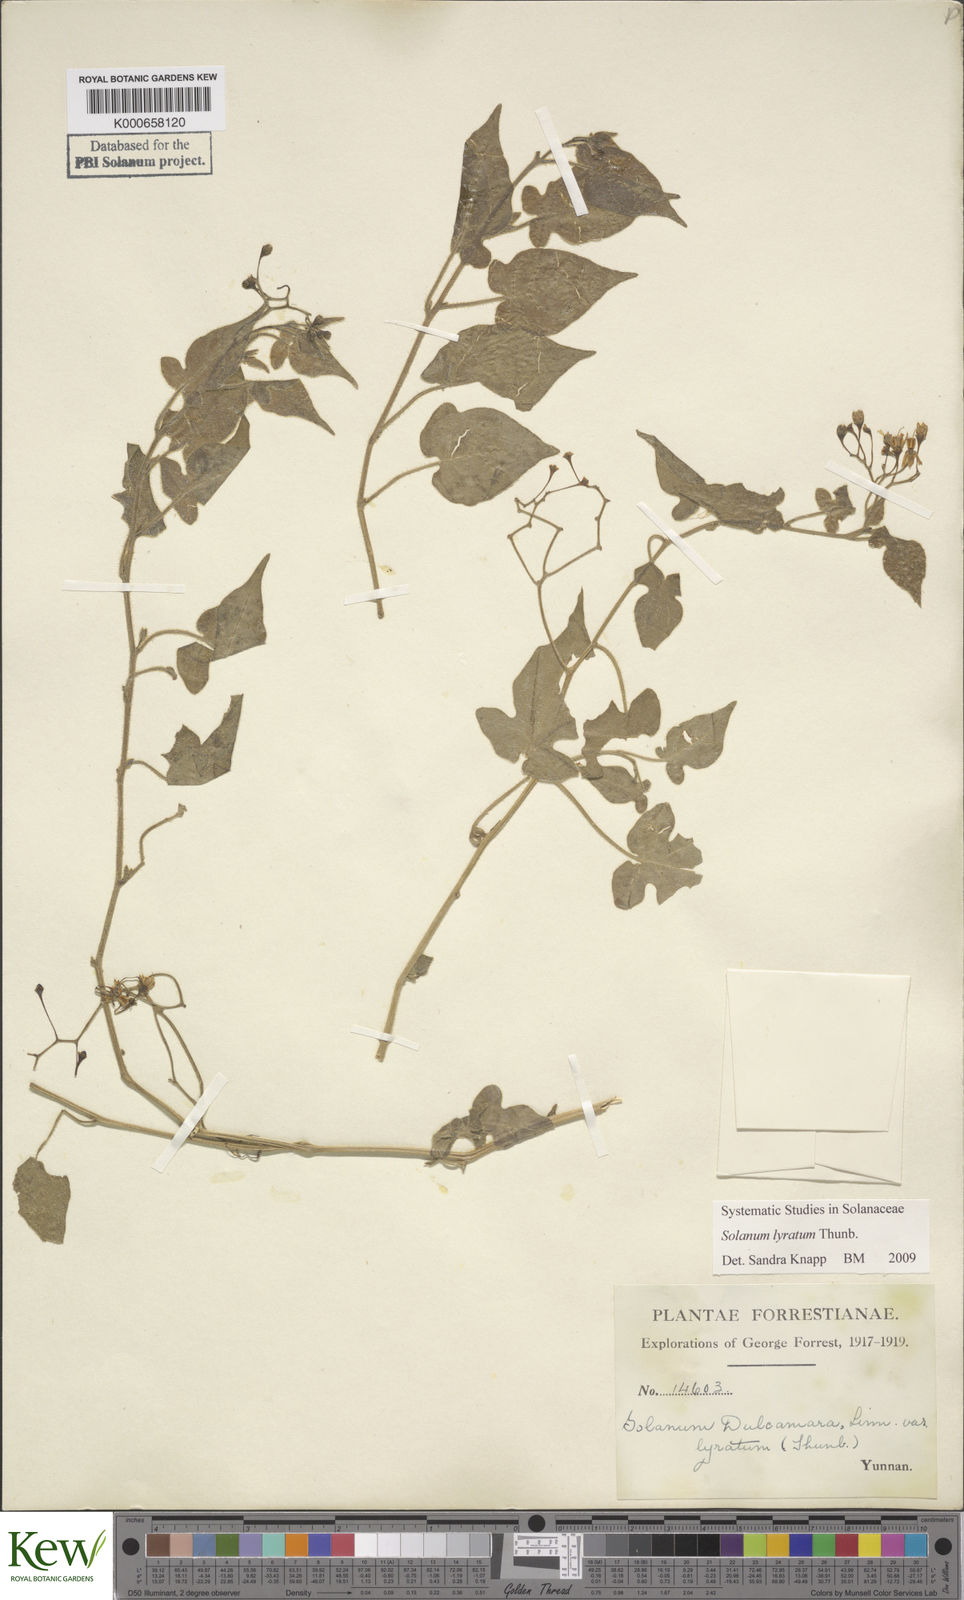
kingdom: Plantae
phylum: Tracheophyta
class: Magnoliopsida
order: Solanales
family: Solanaceae
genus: Solanum
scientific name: Solanum lyratum
